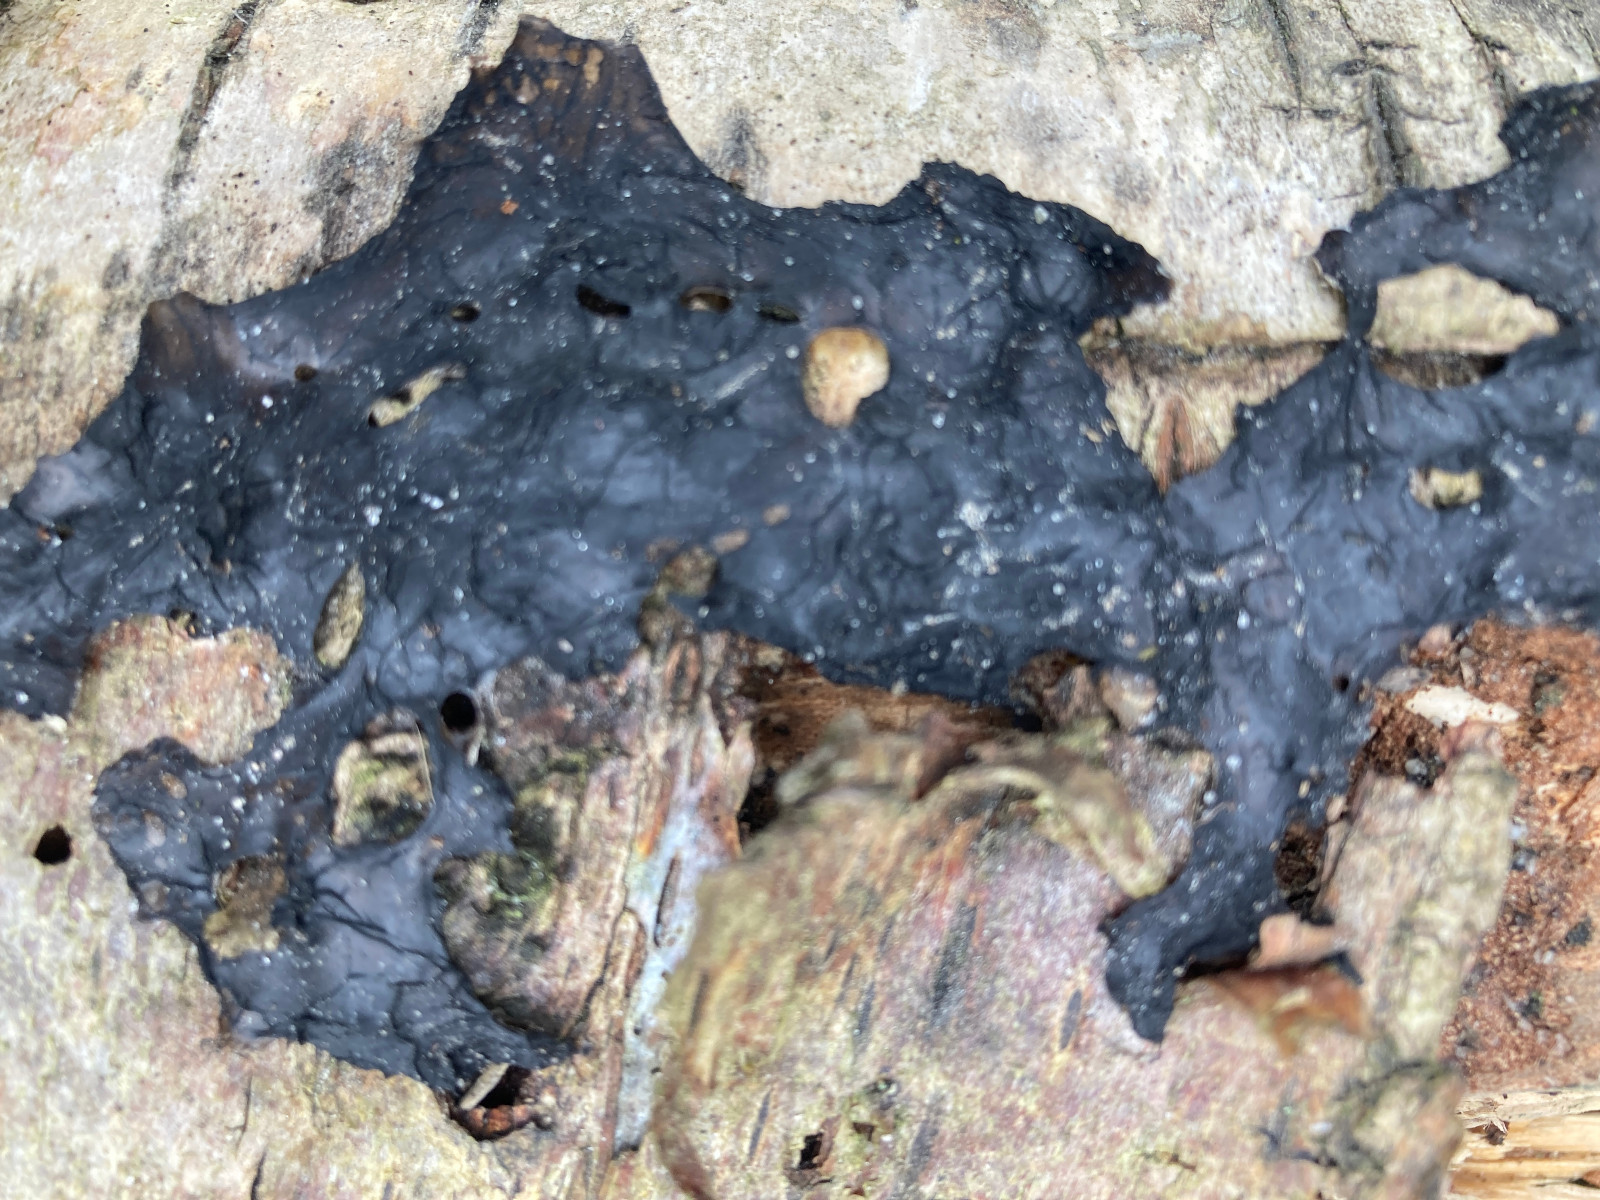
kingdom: Fungi
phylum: Basidiomycota
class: Agaricomycetes
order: Auriculariales
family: Auriculariaceae
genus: Exidia
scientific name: Exidia nigricans
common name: almindelig bævretop
